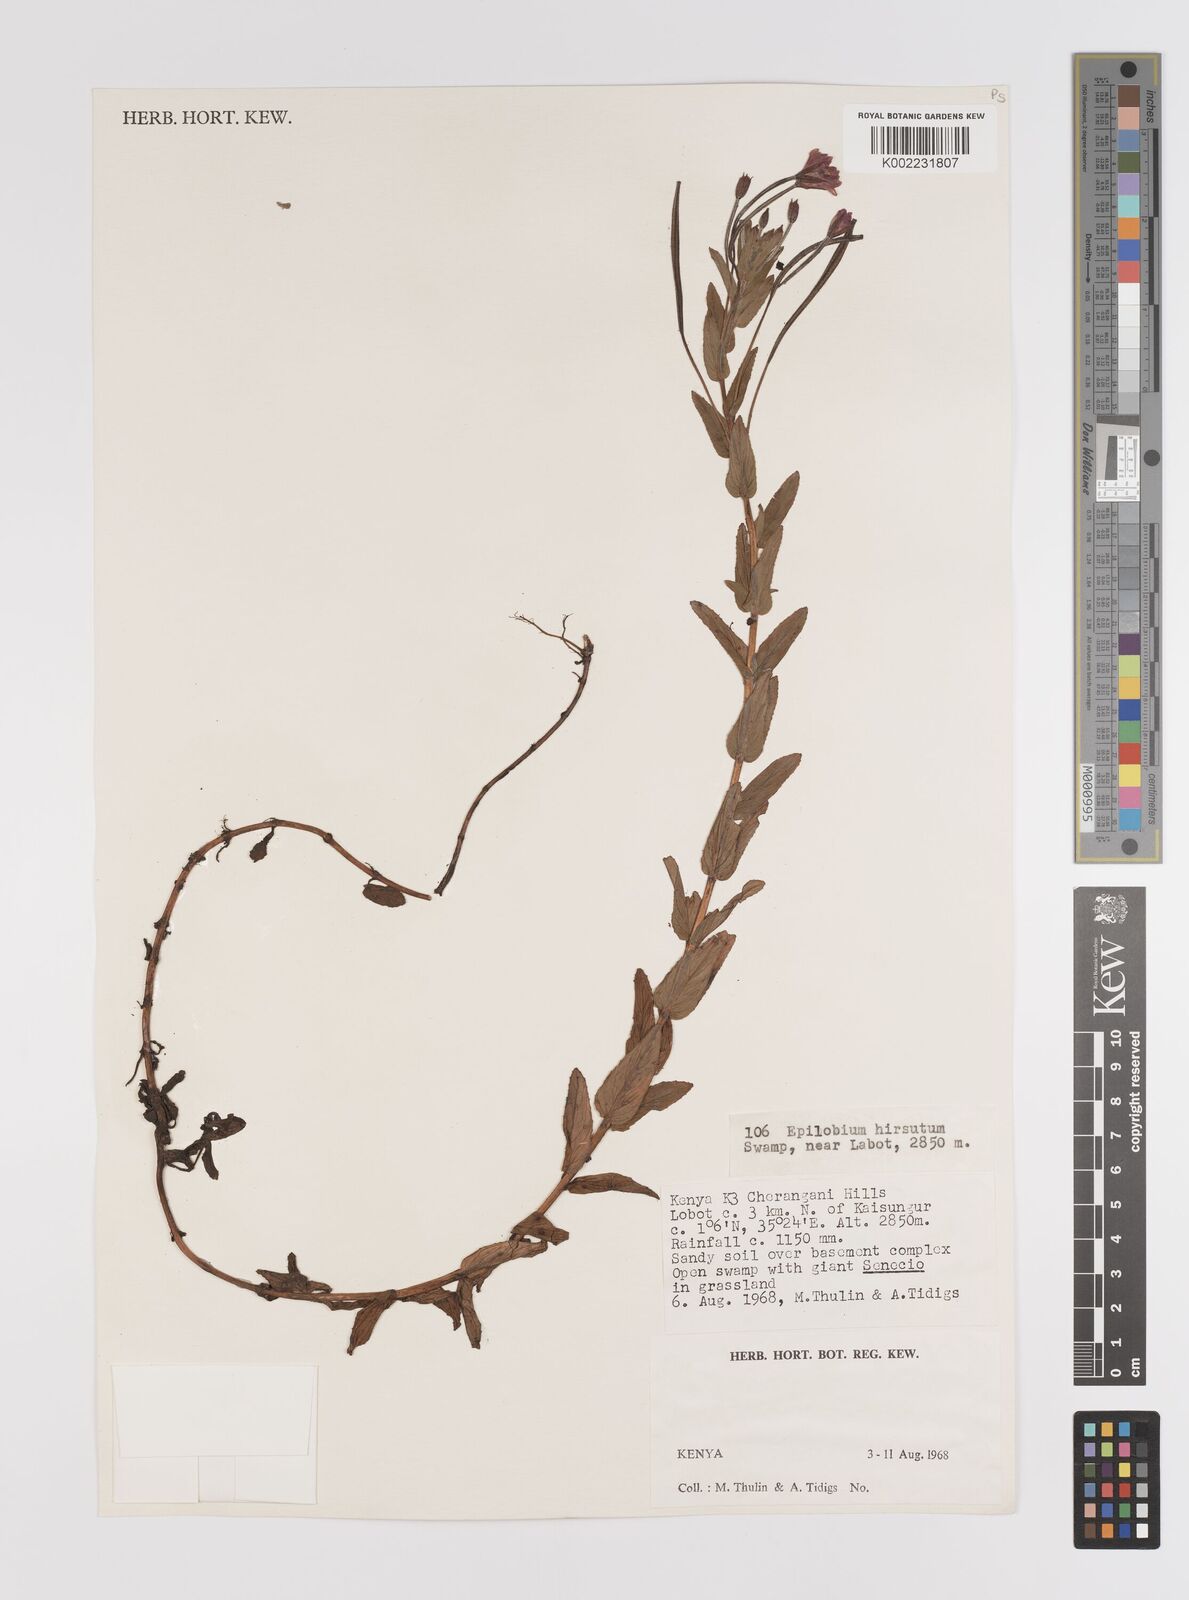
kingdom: Plantae
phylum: Tracheophyta
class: Magnoliopsida
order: Myrtales
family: Onagraceae
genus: Epilobium
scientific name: Epilobium hirsutum
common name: Great willowherb
